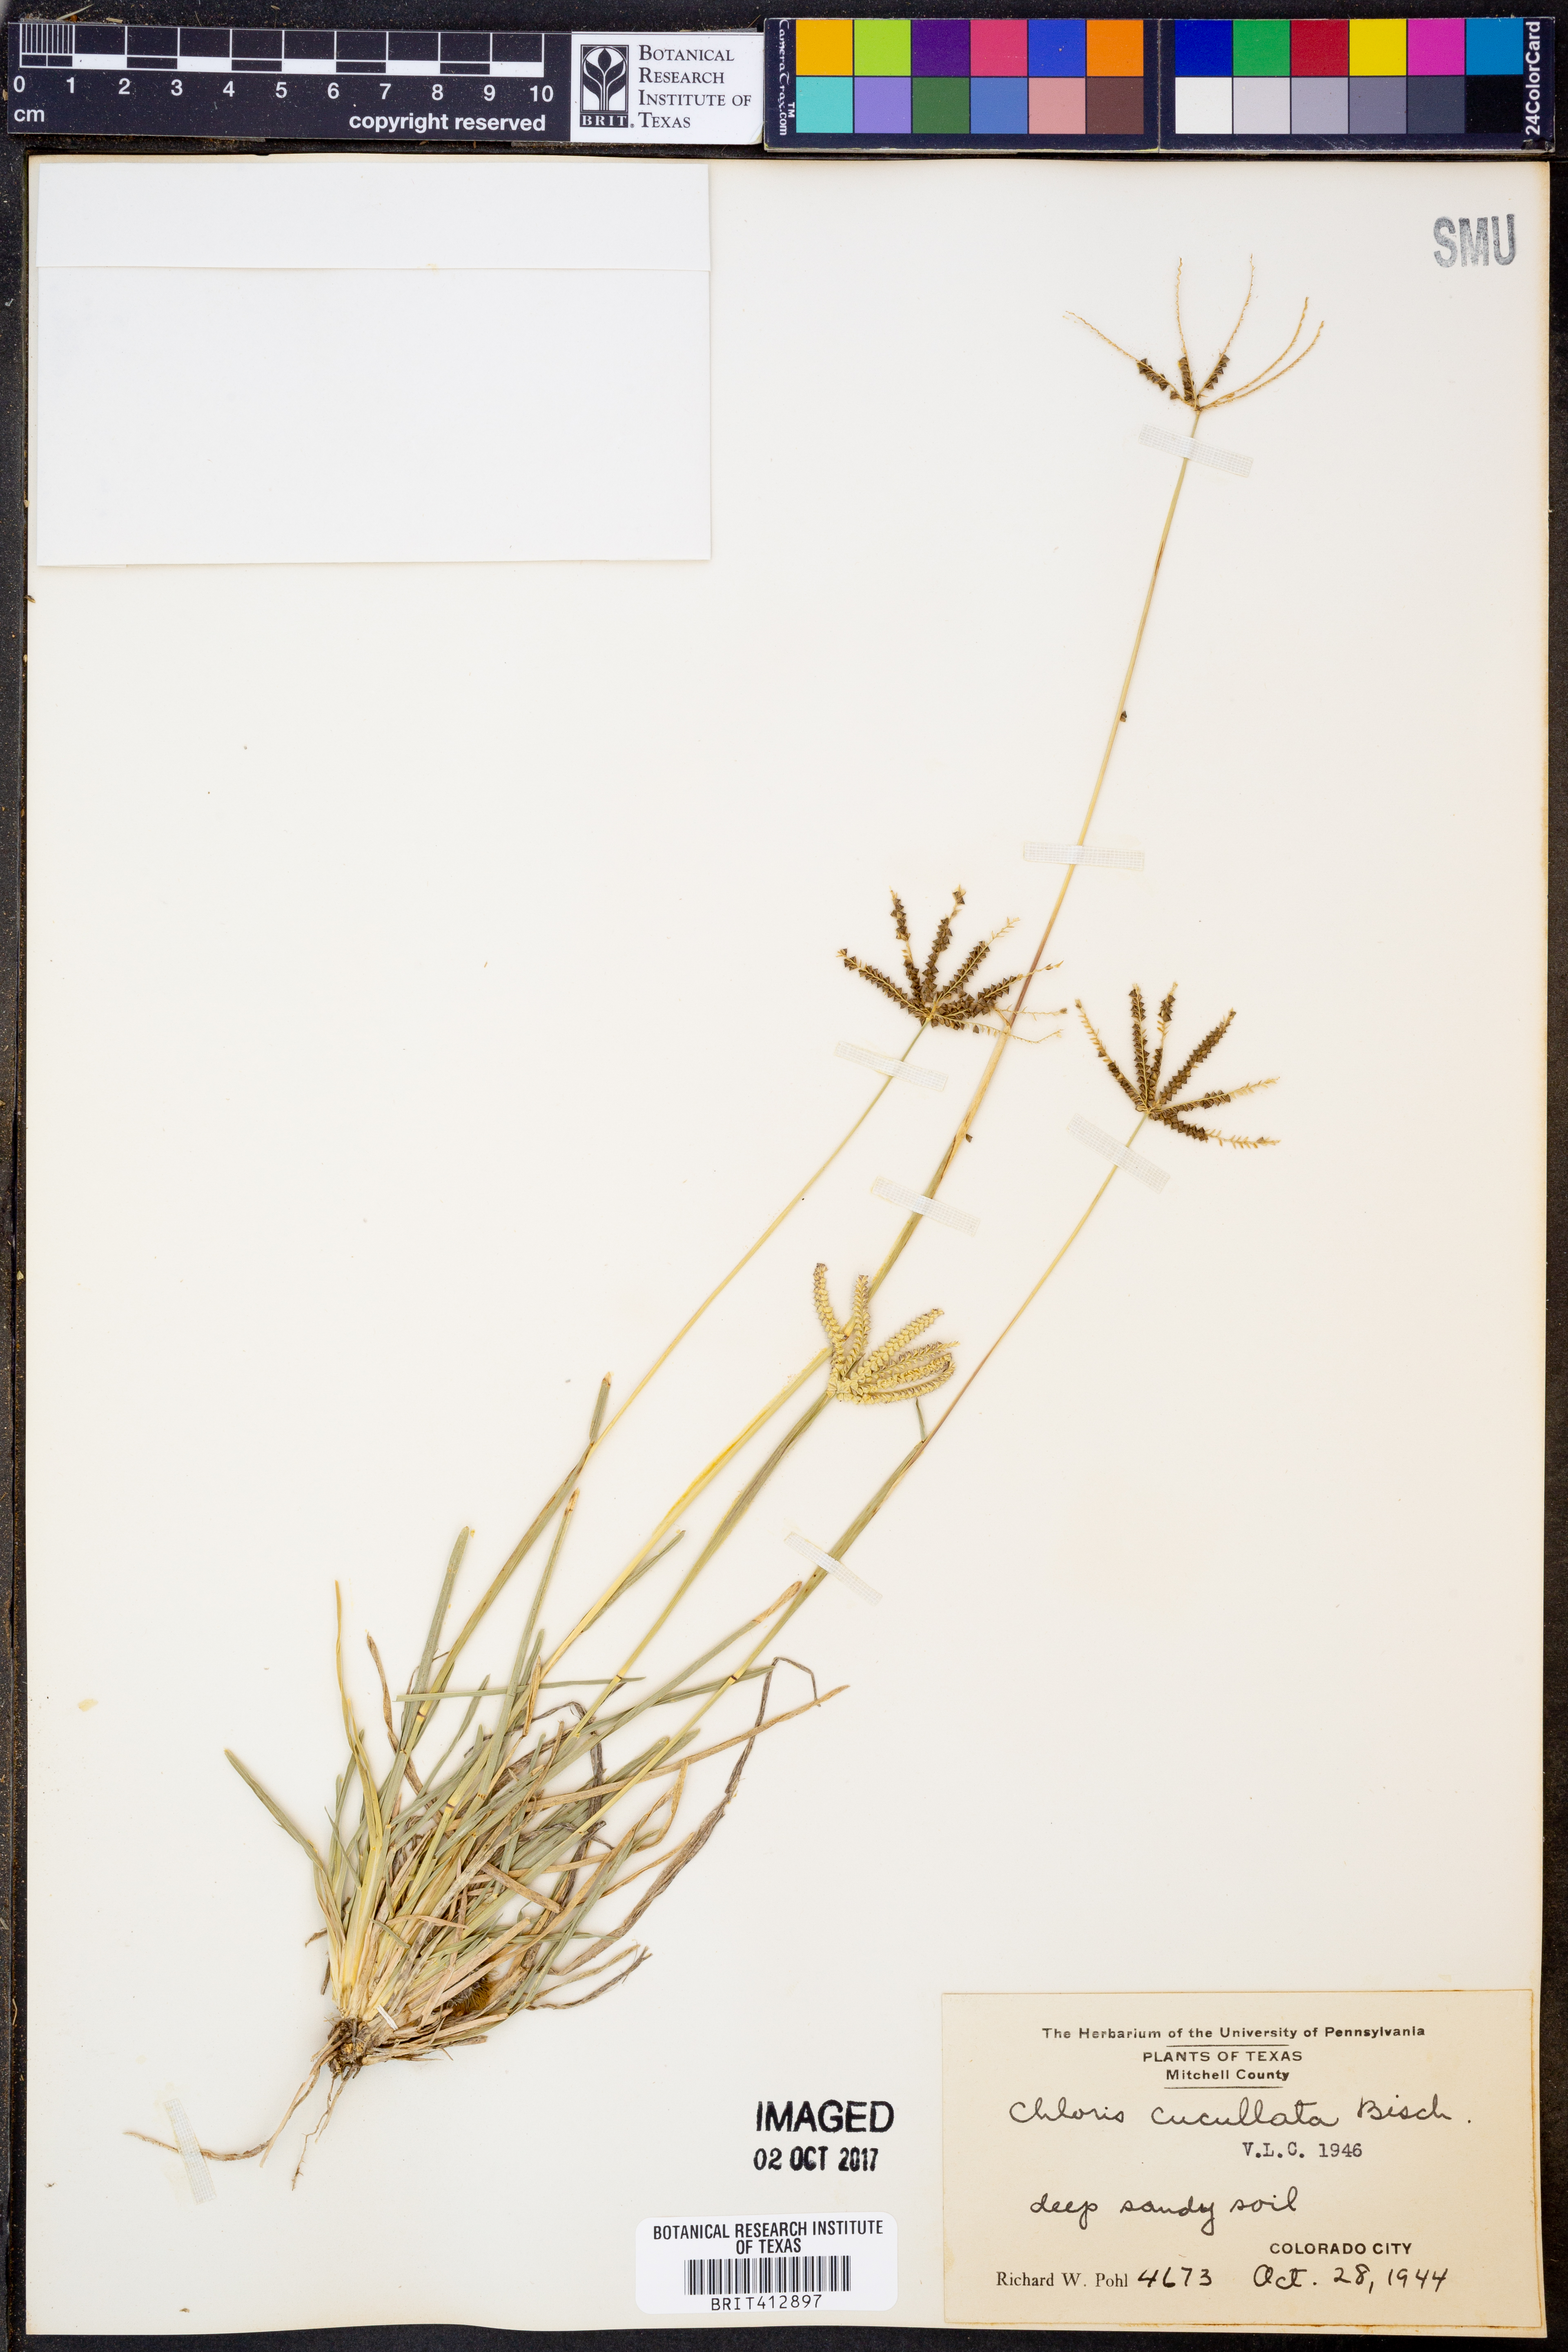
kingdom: Plantae
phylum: Tracheophyta
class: Liliopsida
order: Poales
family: Poaceae
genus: Chloris
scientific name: Chloris cucullata
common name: Hooded windmill grass
